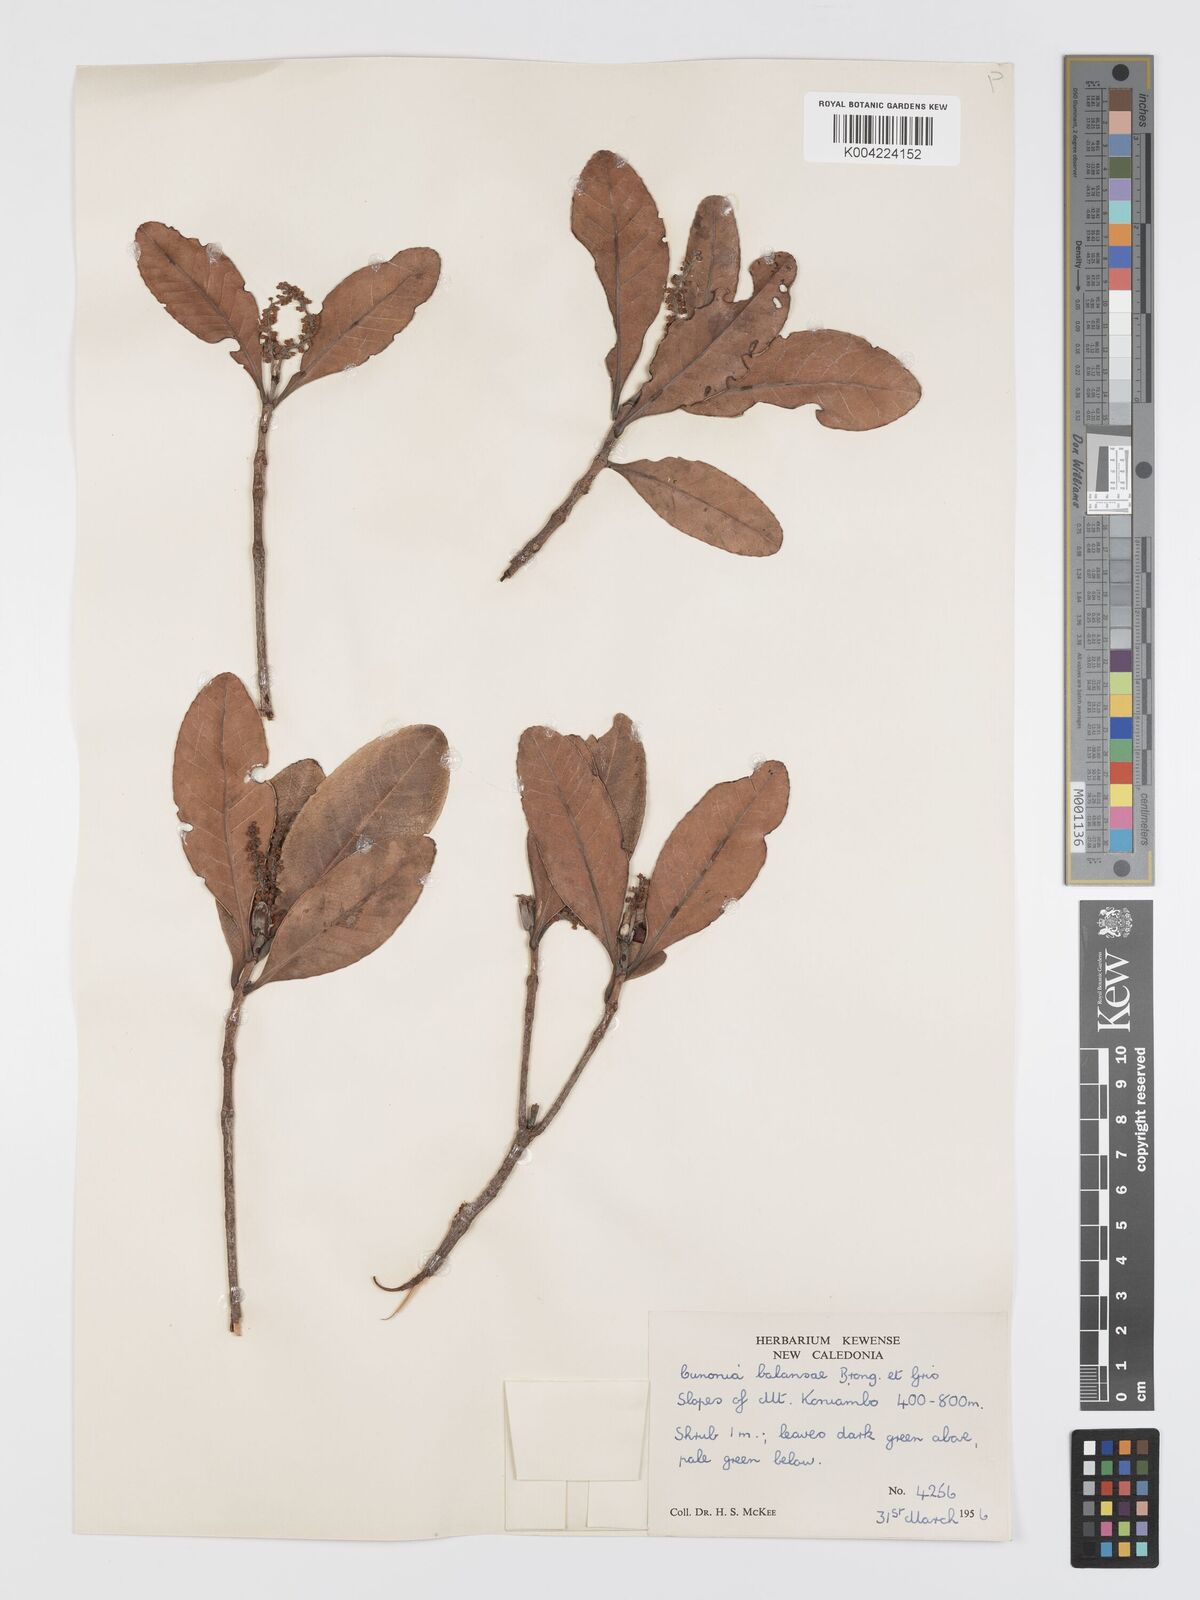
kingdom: Plantae
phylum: Tracheophyta
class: Magnoliopsida
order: Oxalidales
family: Cunoniaceae
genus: Cunonia
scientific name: Cunonia balansae
